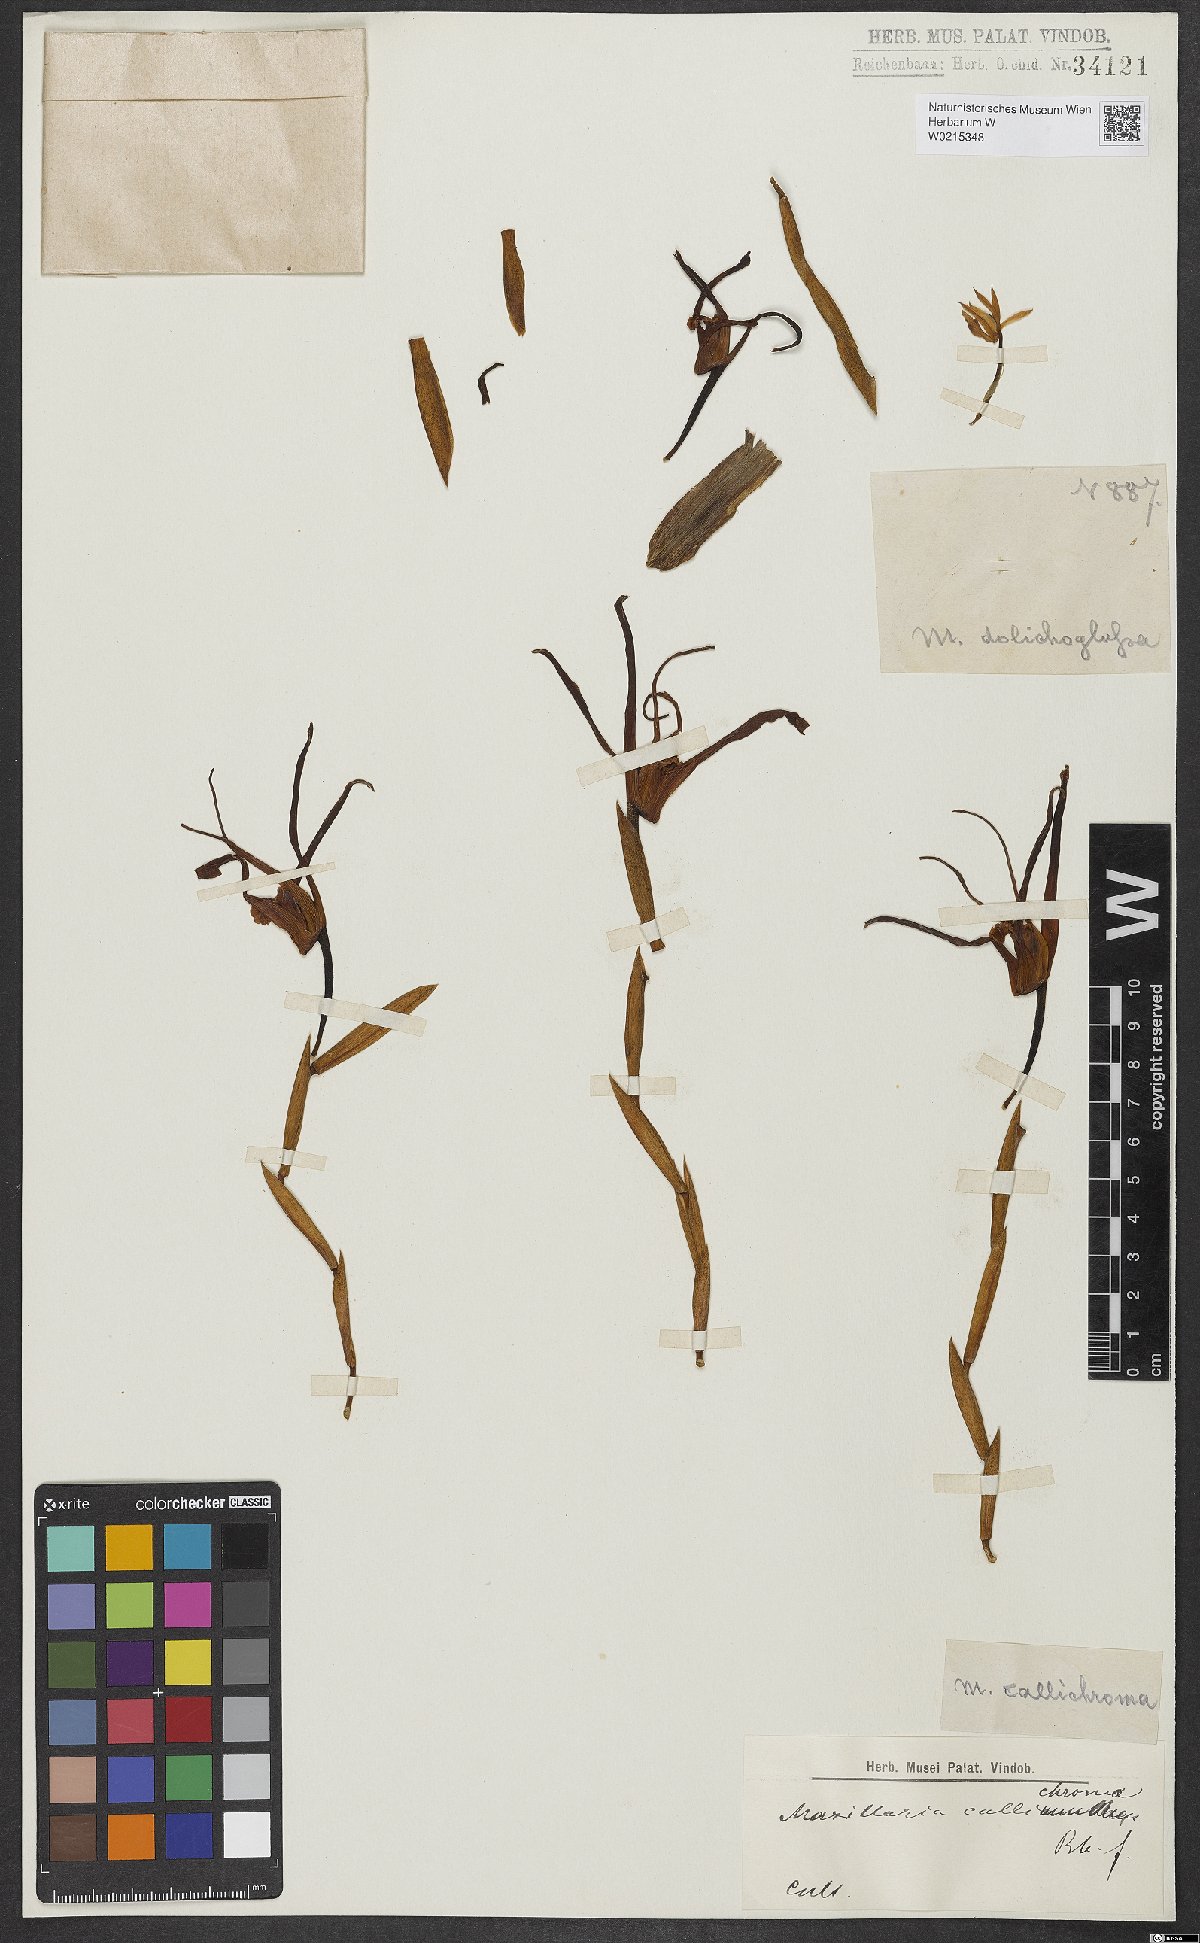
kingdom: Plantae
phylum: Tracheophyta
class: Liliopsida
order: Asparagales
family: Orchidaceae
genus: Maxillaria
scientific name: Maxillaria callichroma
